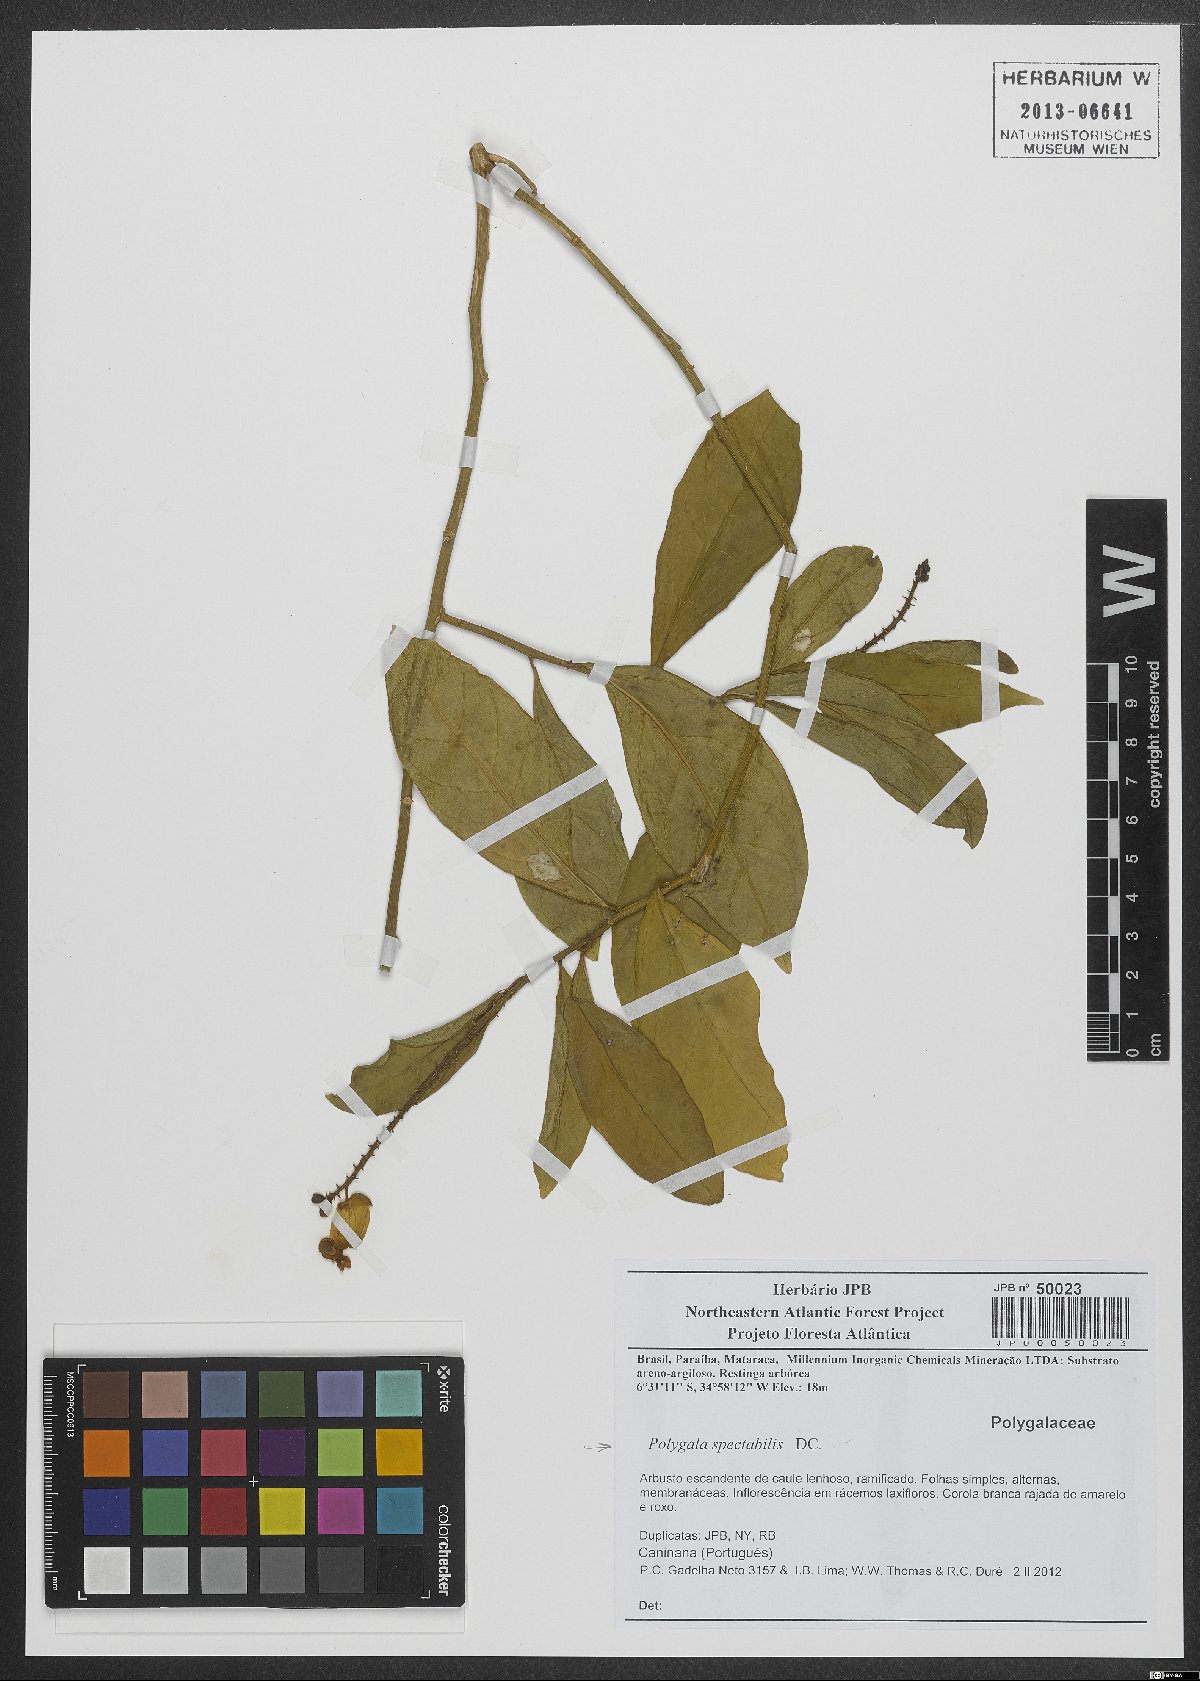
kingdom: Plantae
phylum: Tracheophyta
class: Magnoliopsida
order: Fabales
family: Polygalaceae
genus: Caamembeca
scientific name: Caamembeca spectabilis
